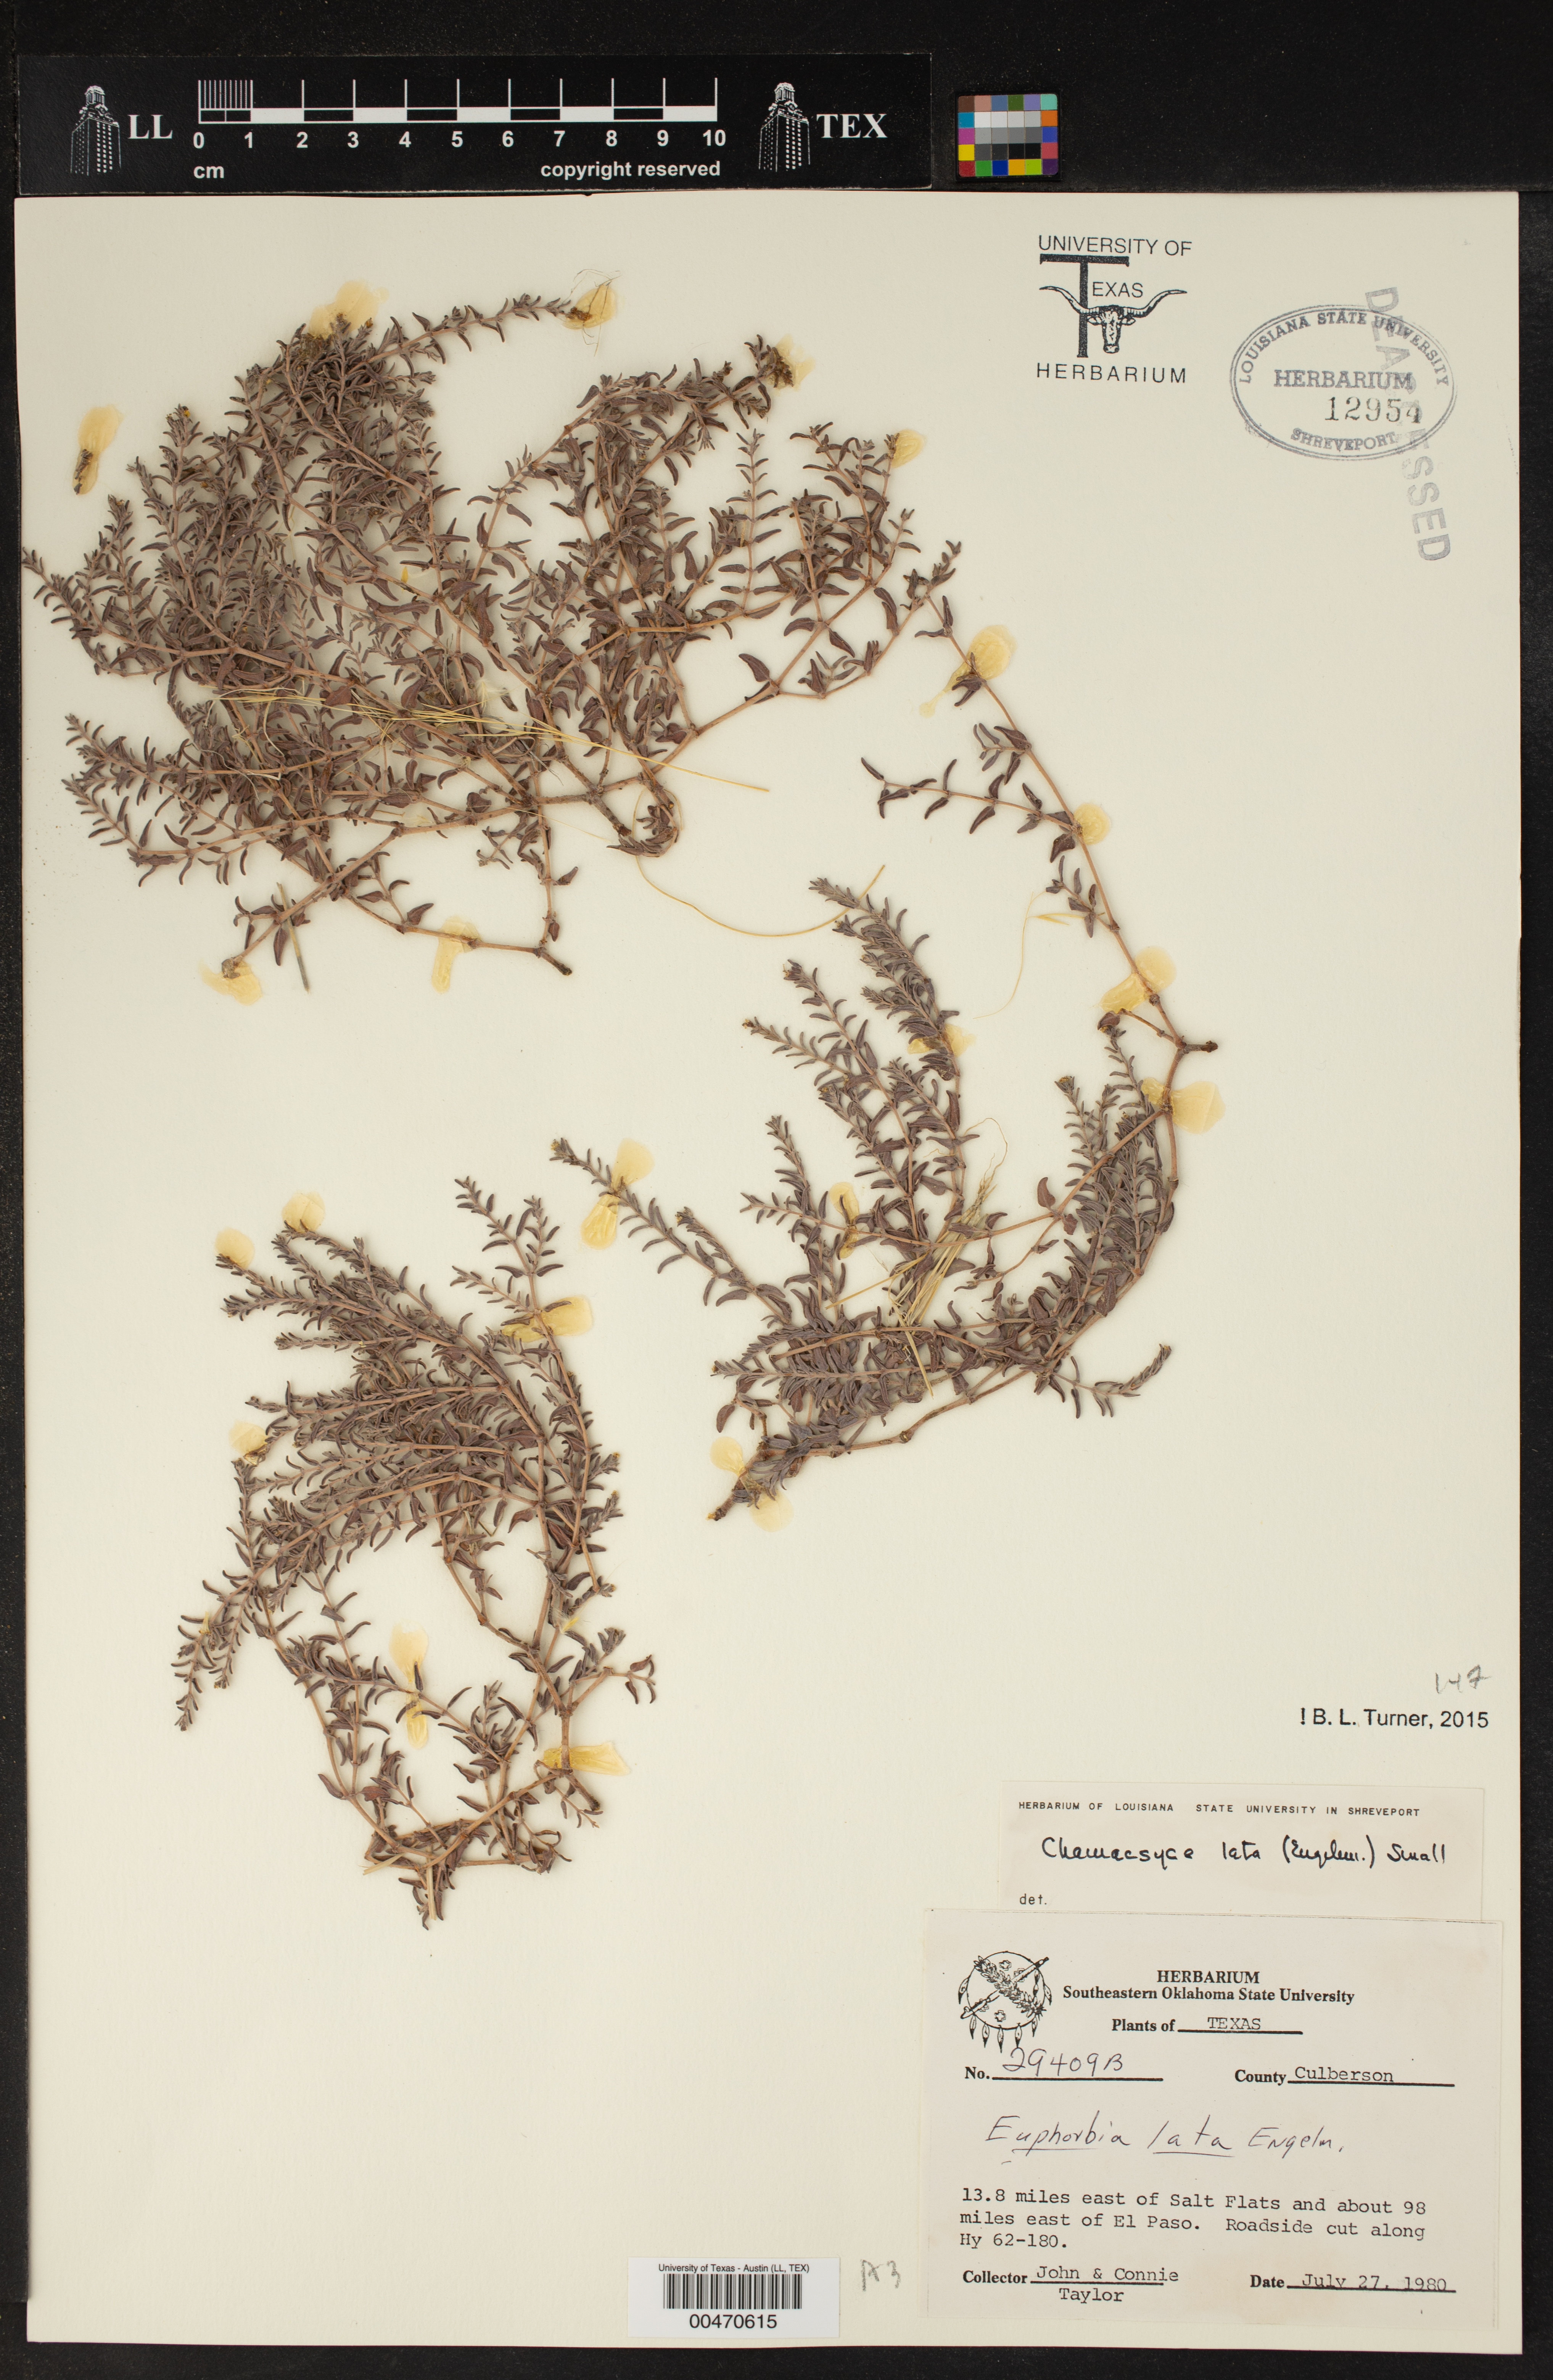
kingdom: Plantae
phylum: Tracheophyta
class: Magnoliopsida
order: Malpighiales
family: Euphorbiaceae
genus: Euphorbia
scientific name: Euphorbia lata
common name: Hoary euphorbia
